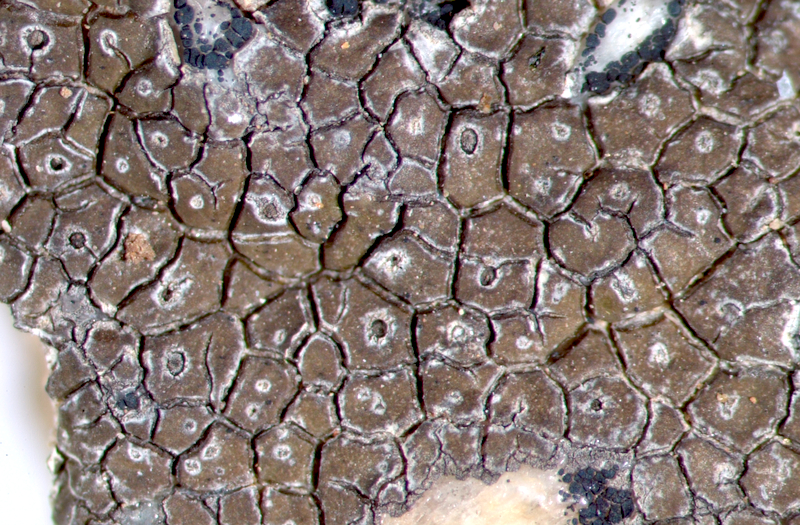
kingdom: Fungi
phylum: Ascomycota
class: Lecanoromycetes
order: Ostropales
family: Graphidaceae
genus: Diploschistes
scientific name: Diploschistes aeneus
